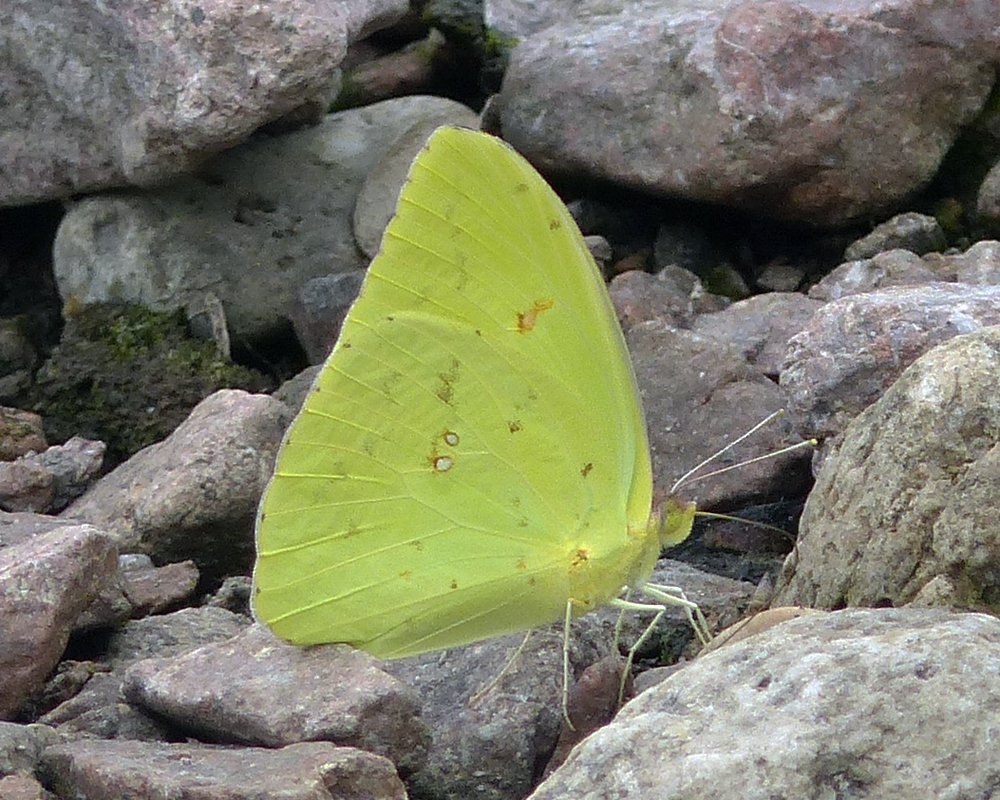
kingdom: Animalia
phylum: Arthropoda
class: Insecta
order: Lepidoptera
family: Pieridae
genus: Phoebis
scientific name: Phoebis sennae
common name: Cloudless Sulphur
